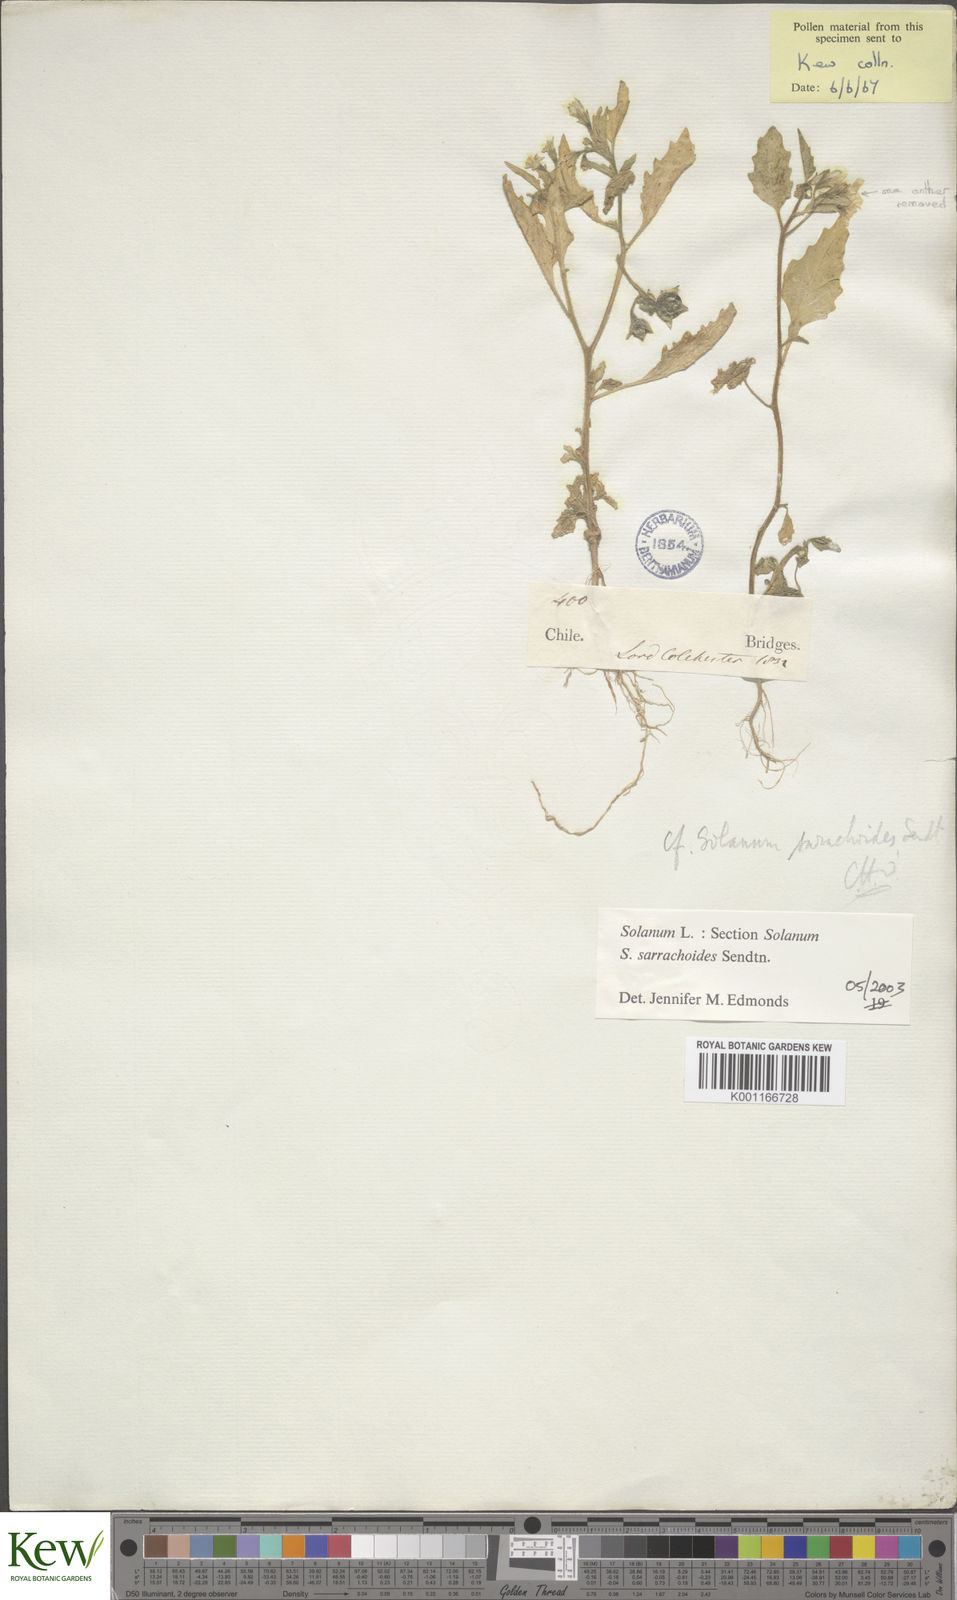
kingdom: Plantae
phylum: Tracheophyta
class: Magnoliopsida
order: Solanales
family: Solanaceae
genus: Solanum
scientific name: Solanum nitidibaccatum
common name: Hairy nightshade
